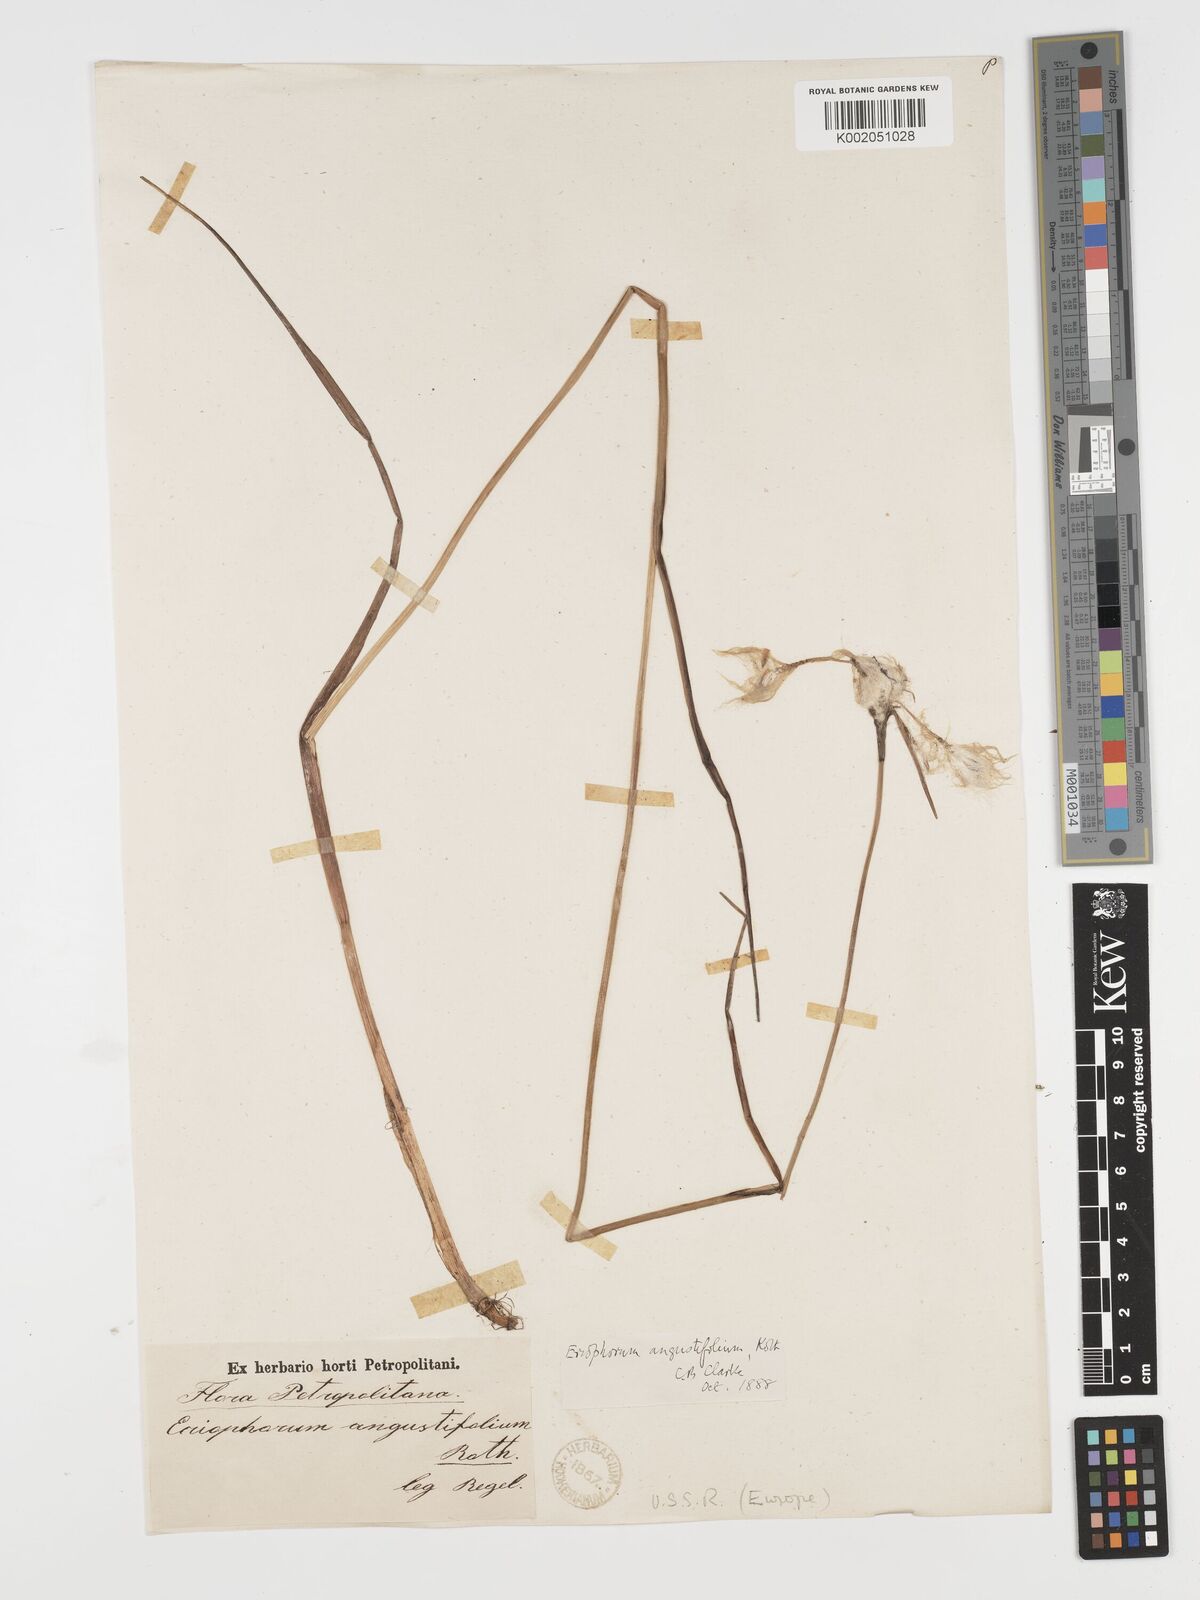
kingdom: Plantae
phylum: Tracheophyta
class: Liliopsida
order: Poales
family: Cyperaceae
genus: Eriophorum
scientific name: Eriophorum angustifolium
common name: Common cottongrass
